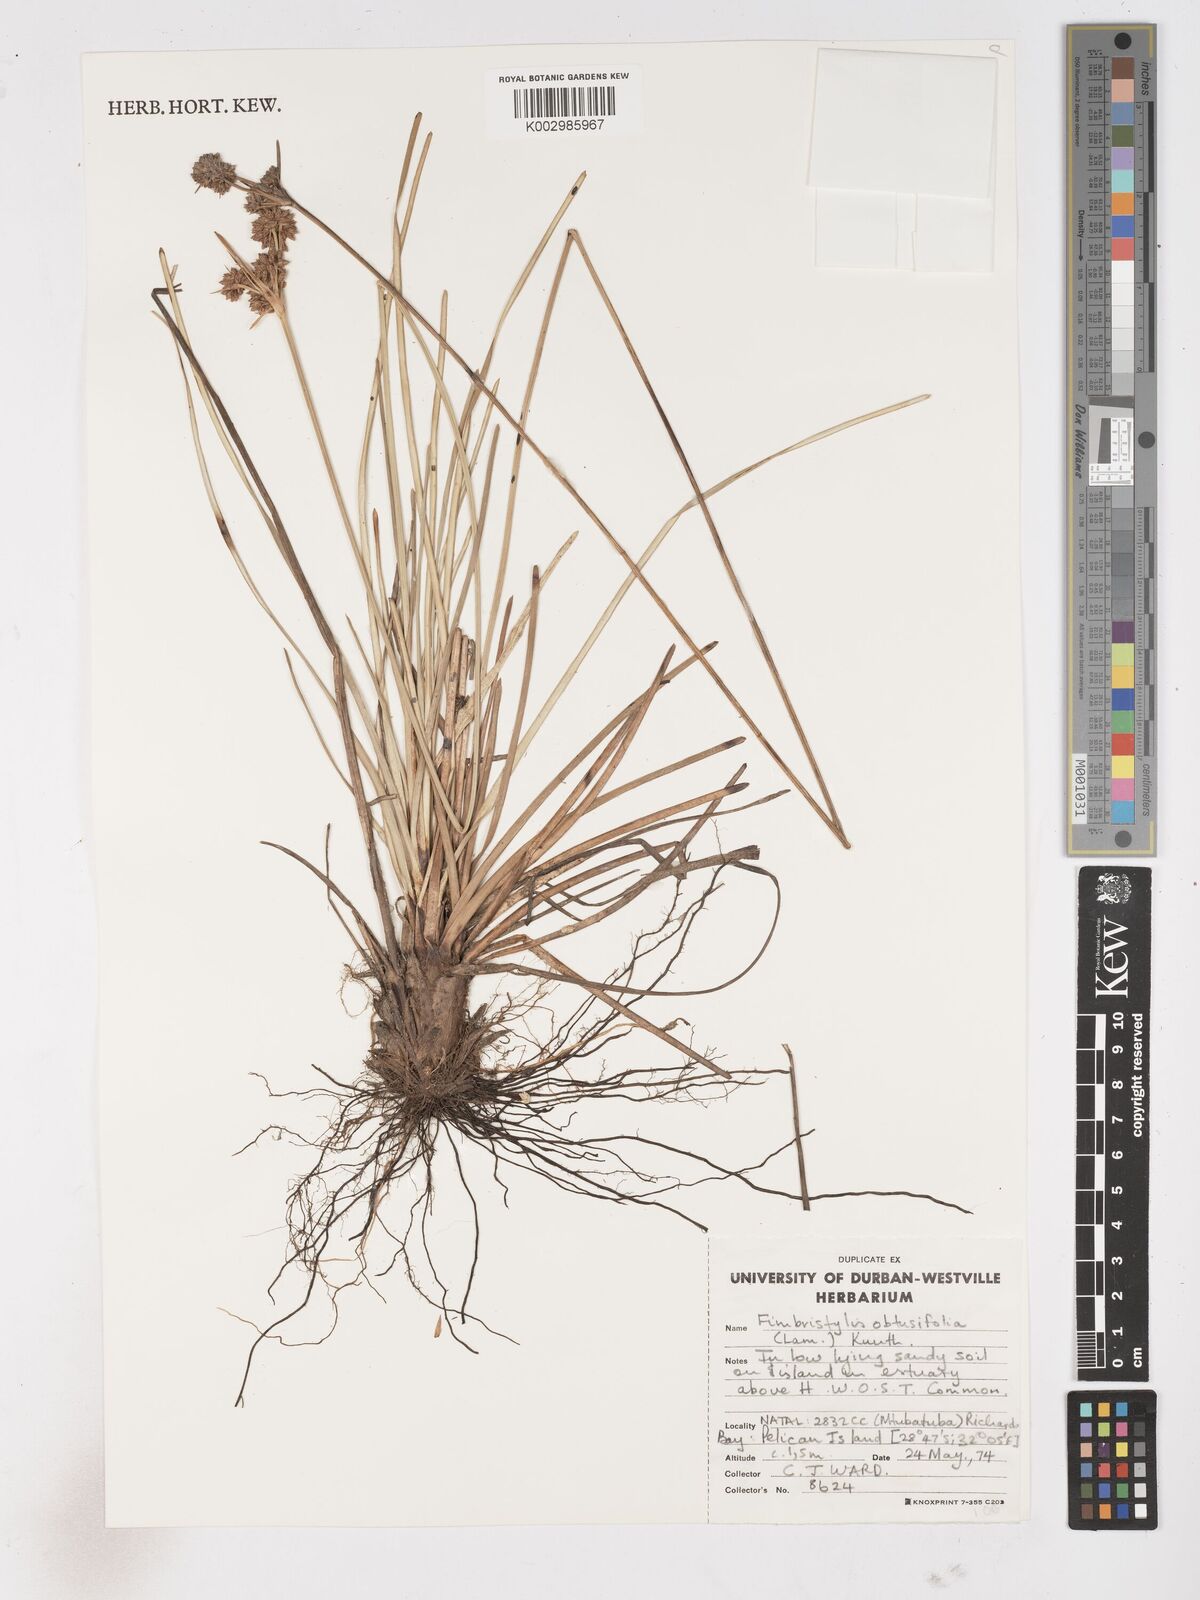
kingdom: Plantae
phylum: Tracheophyta
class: Liliopsida
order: Poales
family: Cyperaceae
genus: Fimbristylis
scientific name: Fimbristylis cymosa
